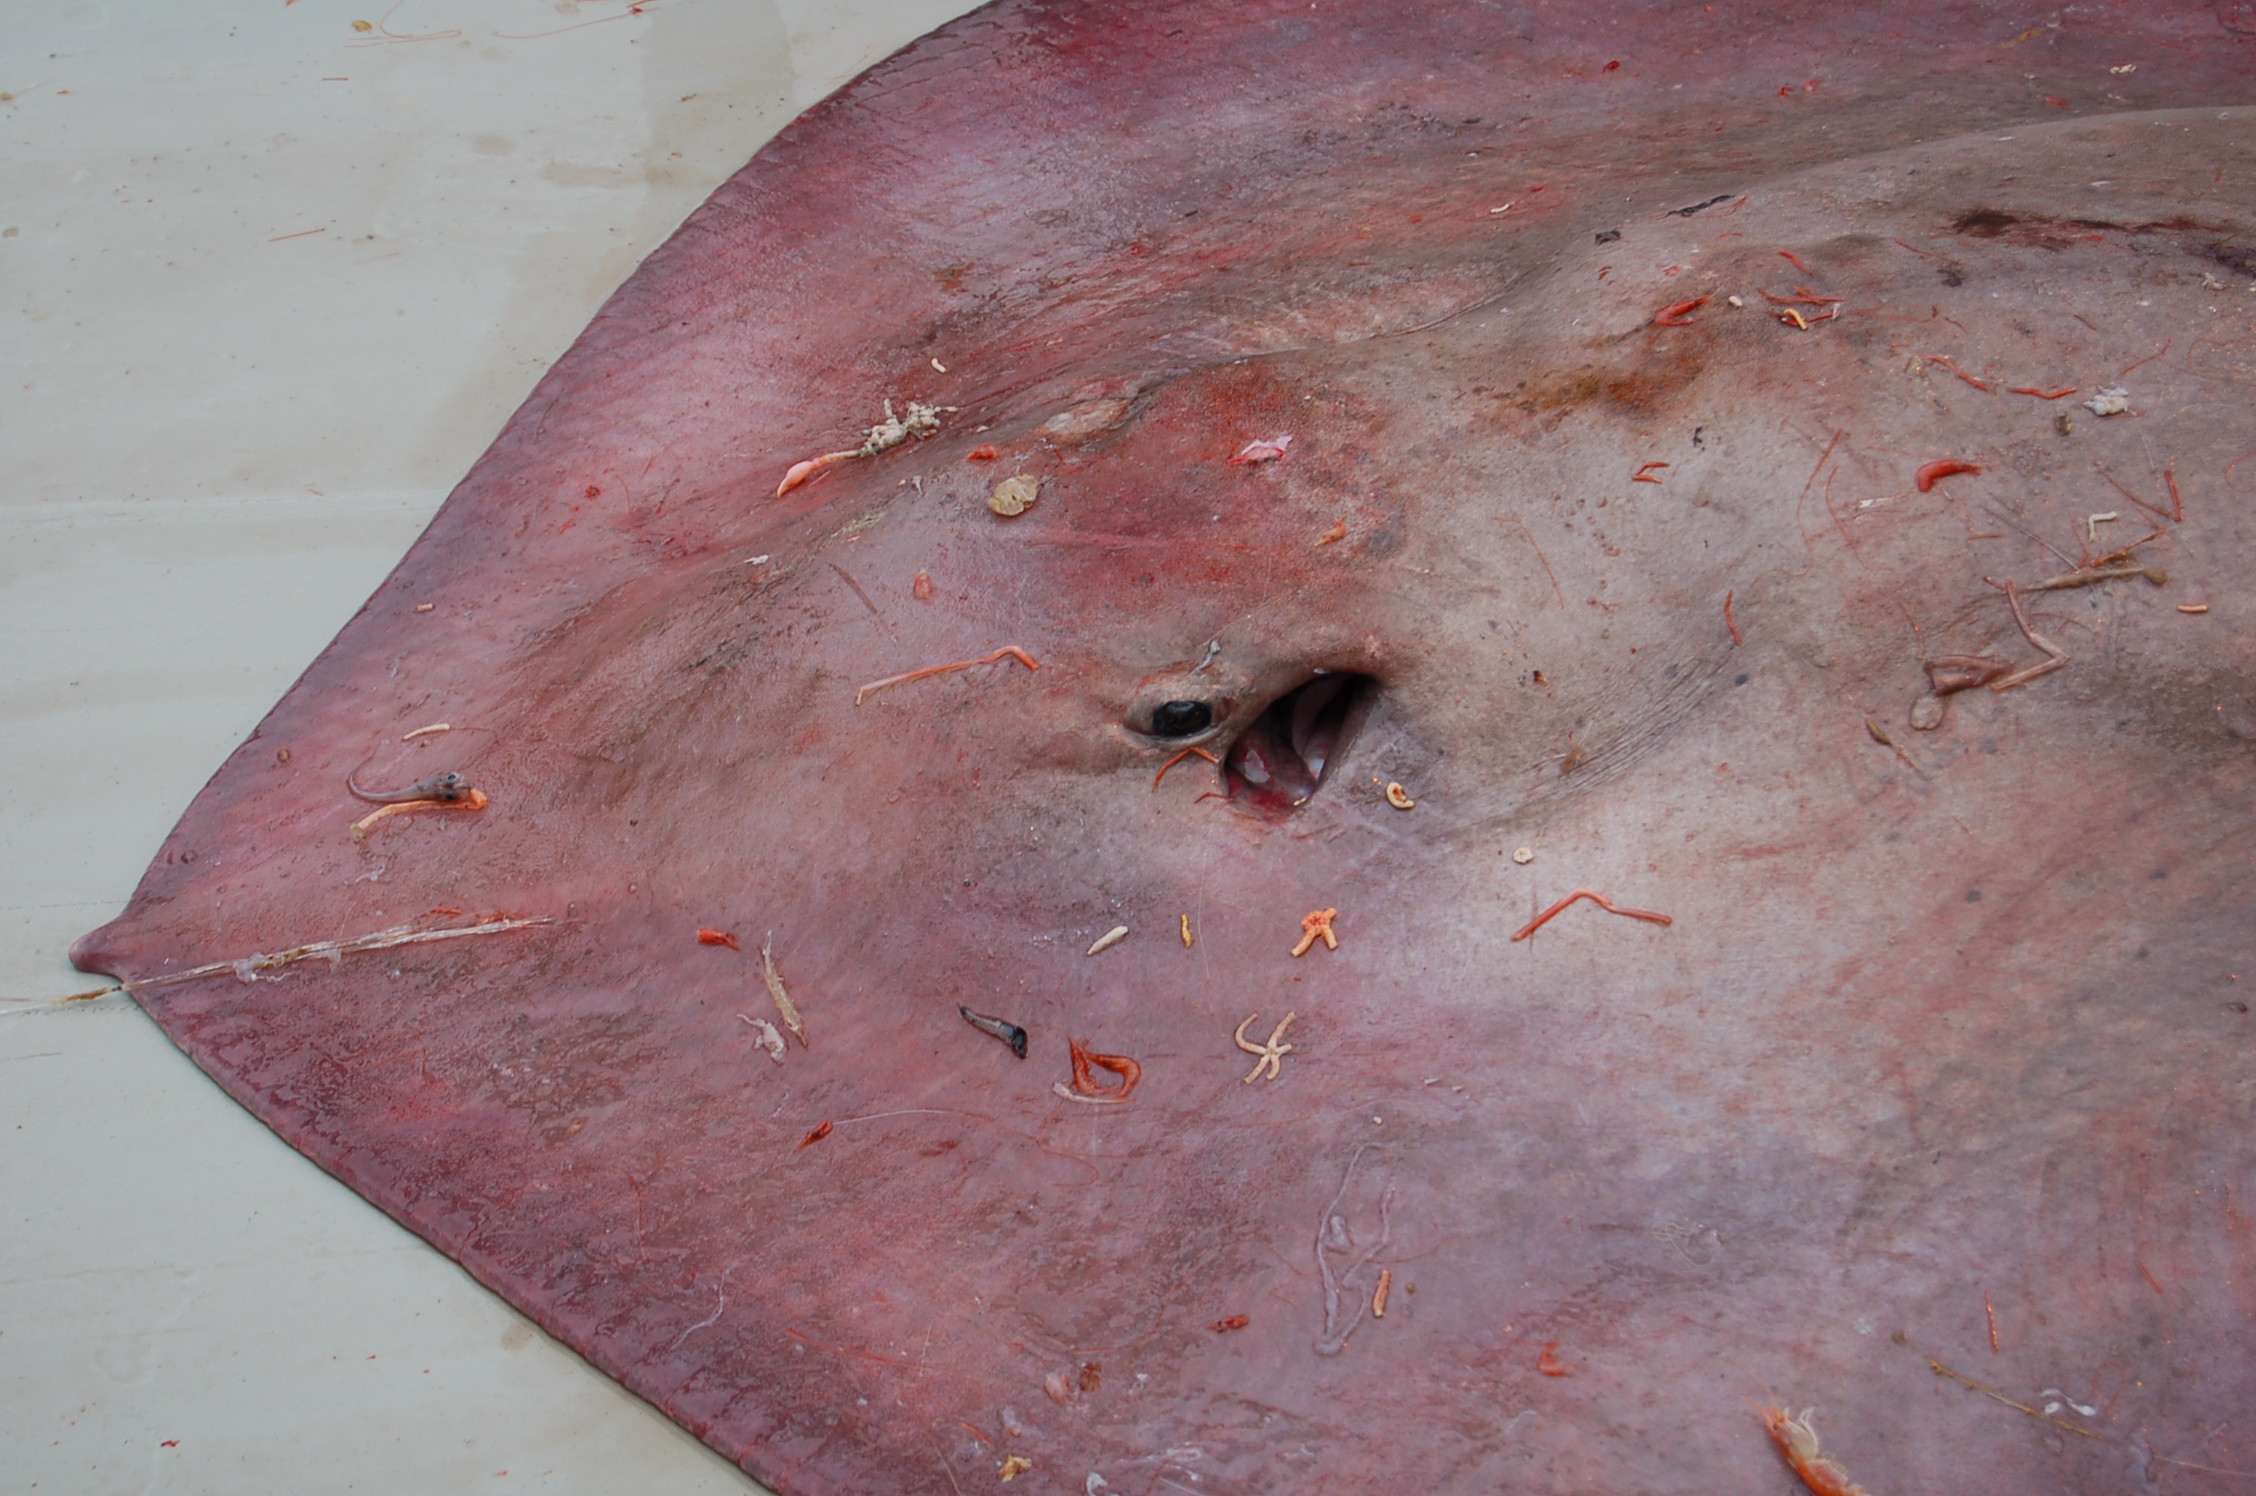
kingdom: Animalia
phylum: Chordata
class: Elasmobranchii
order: Myliobatiformes
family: Plesiobatidae
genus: Plesiobatis
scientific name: Plesiobatis daviesi
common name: Deepwater stingray
